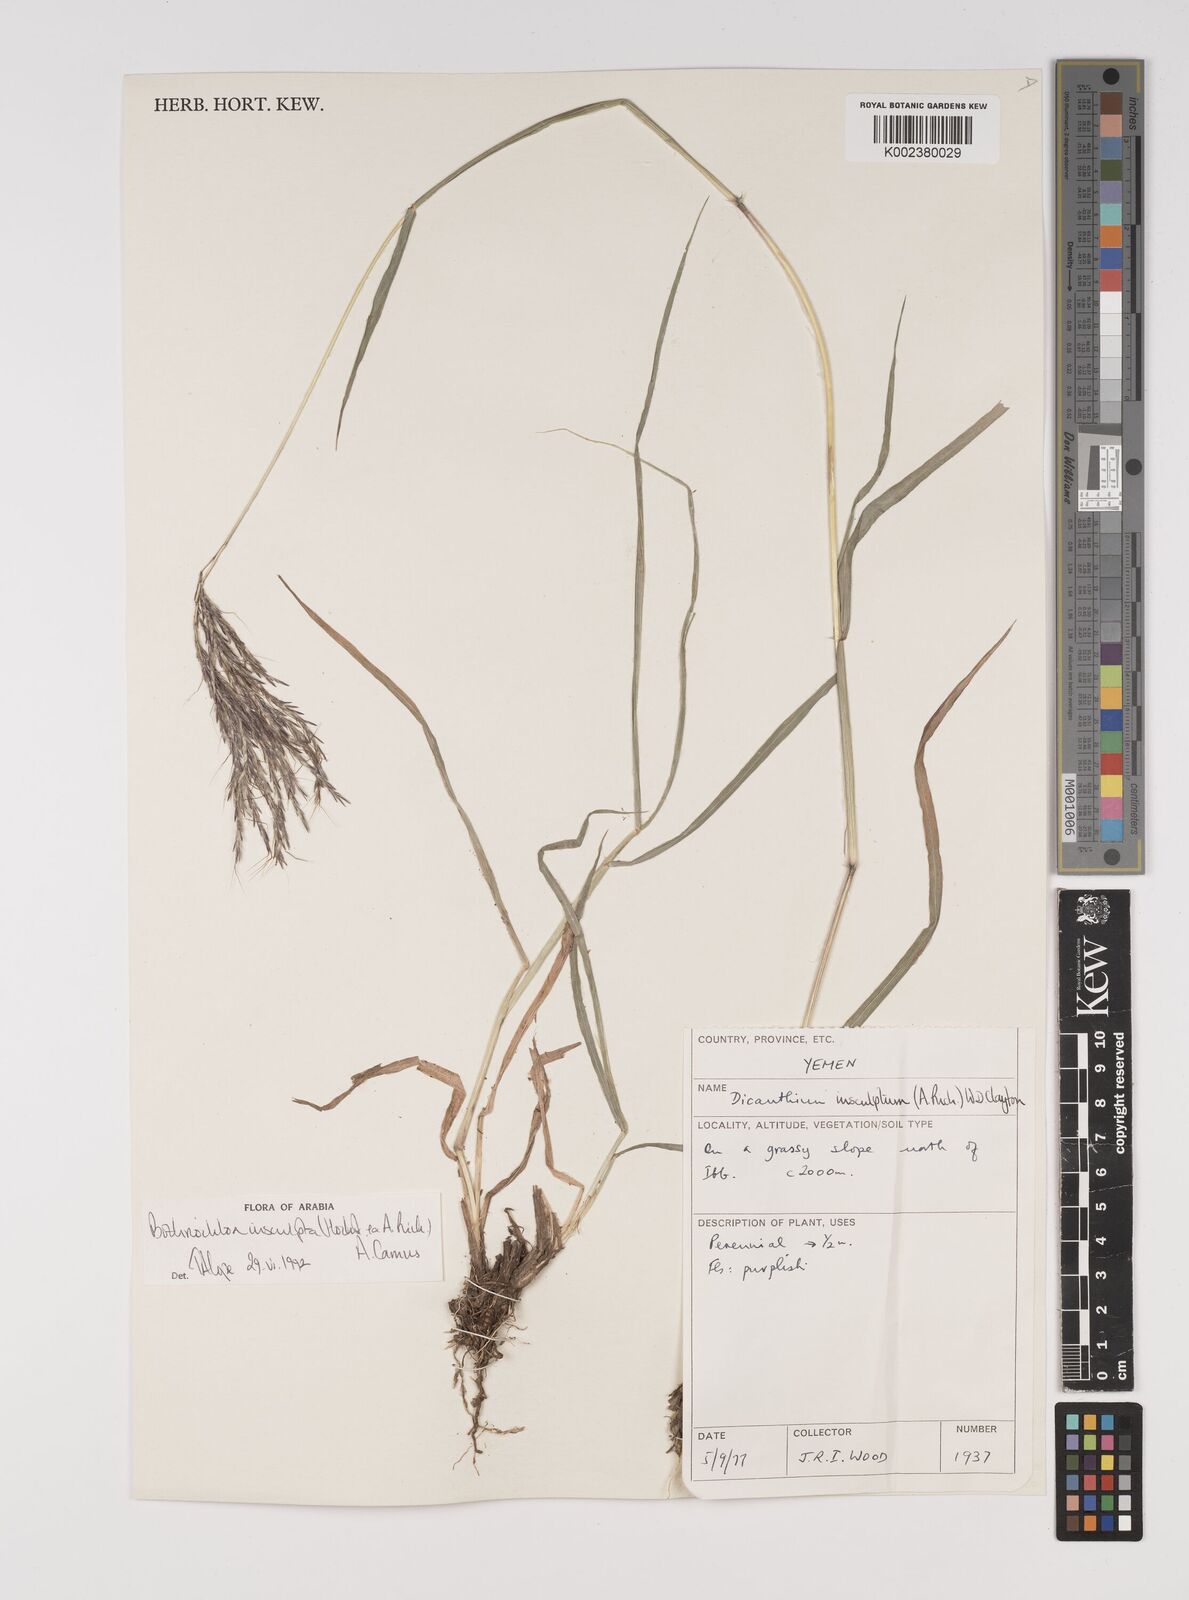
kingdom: Plantae
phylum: Tracheophyta
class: Liliopsida
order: Poales
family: Poaceae
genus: Bothriochloa
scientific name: Bothriochloa insculpta
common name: Creeping-bluegrass
